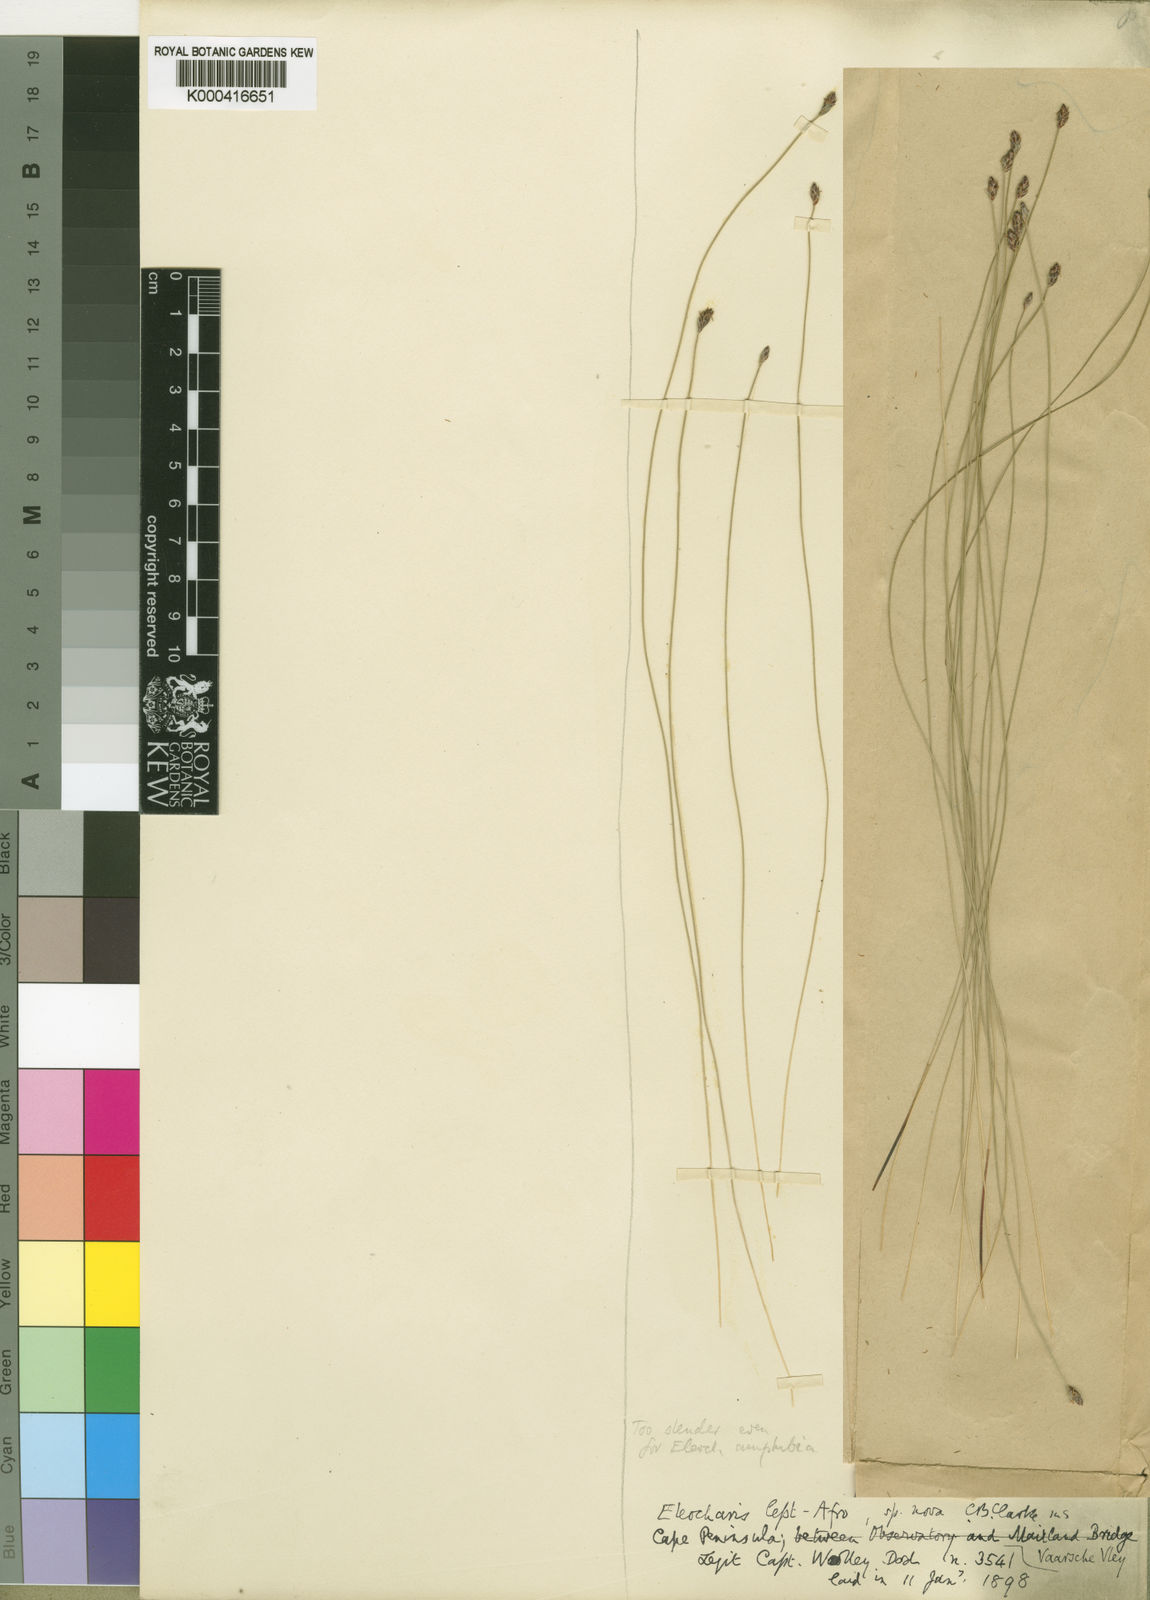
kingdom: Plantae
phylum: Tracheophyta
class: Liliopsida
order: Poales
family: Cyperaceae
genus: Eleocharis
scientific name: Eleocharis lepta
